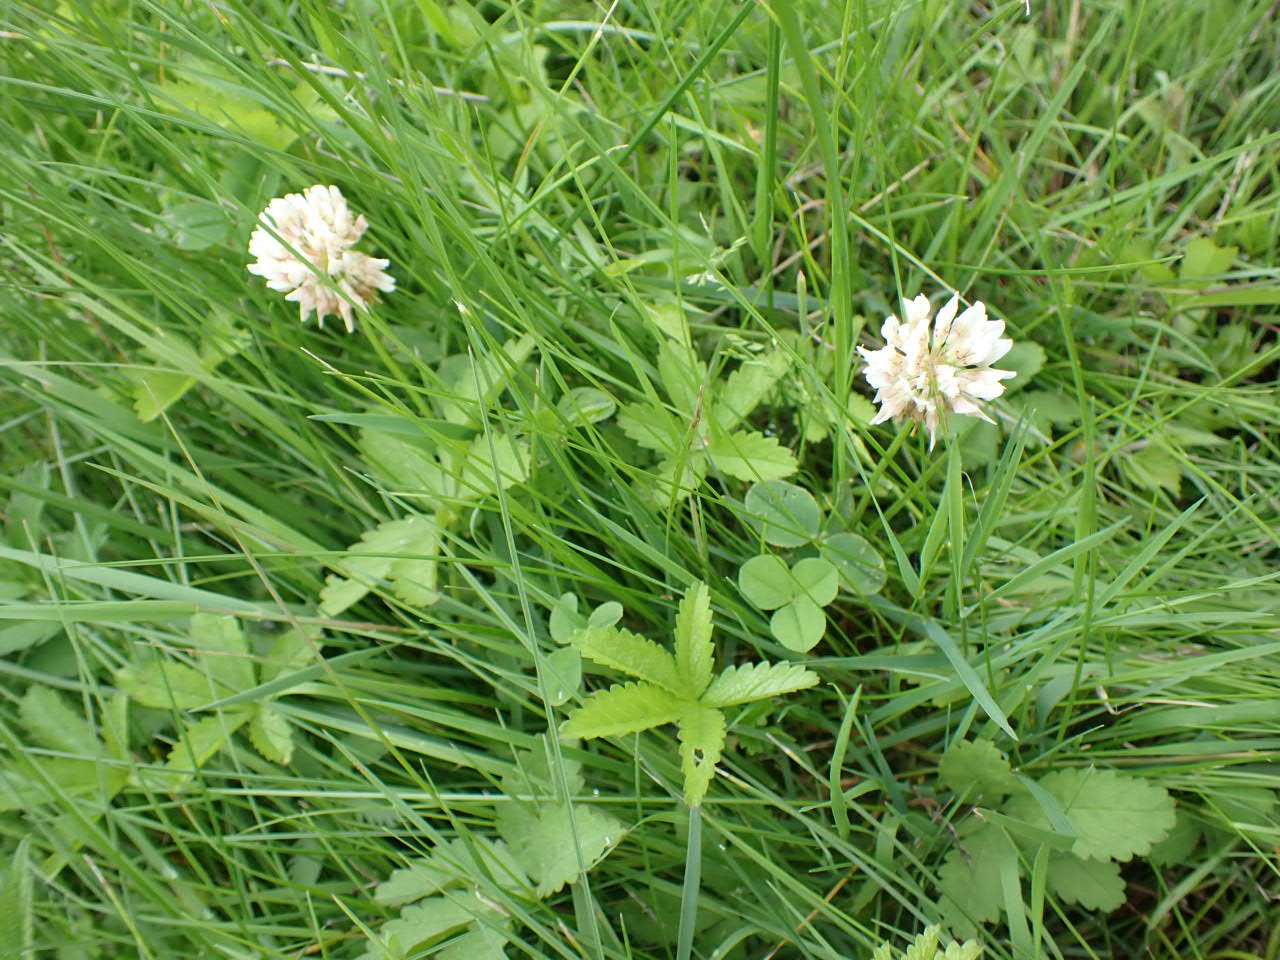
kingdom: Plantae
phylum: Tracheophyta
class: Magnoliopsida
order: Fabales
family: Fabaceae
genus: Trifolium
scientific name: Trifolium repens
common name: Hvid-kløver
